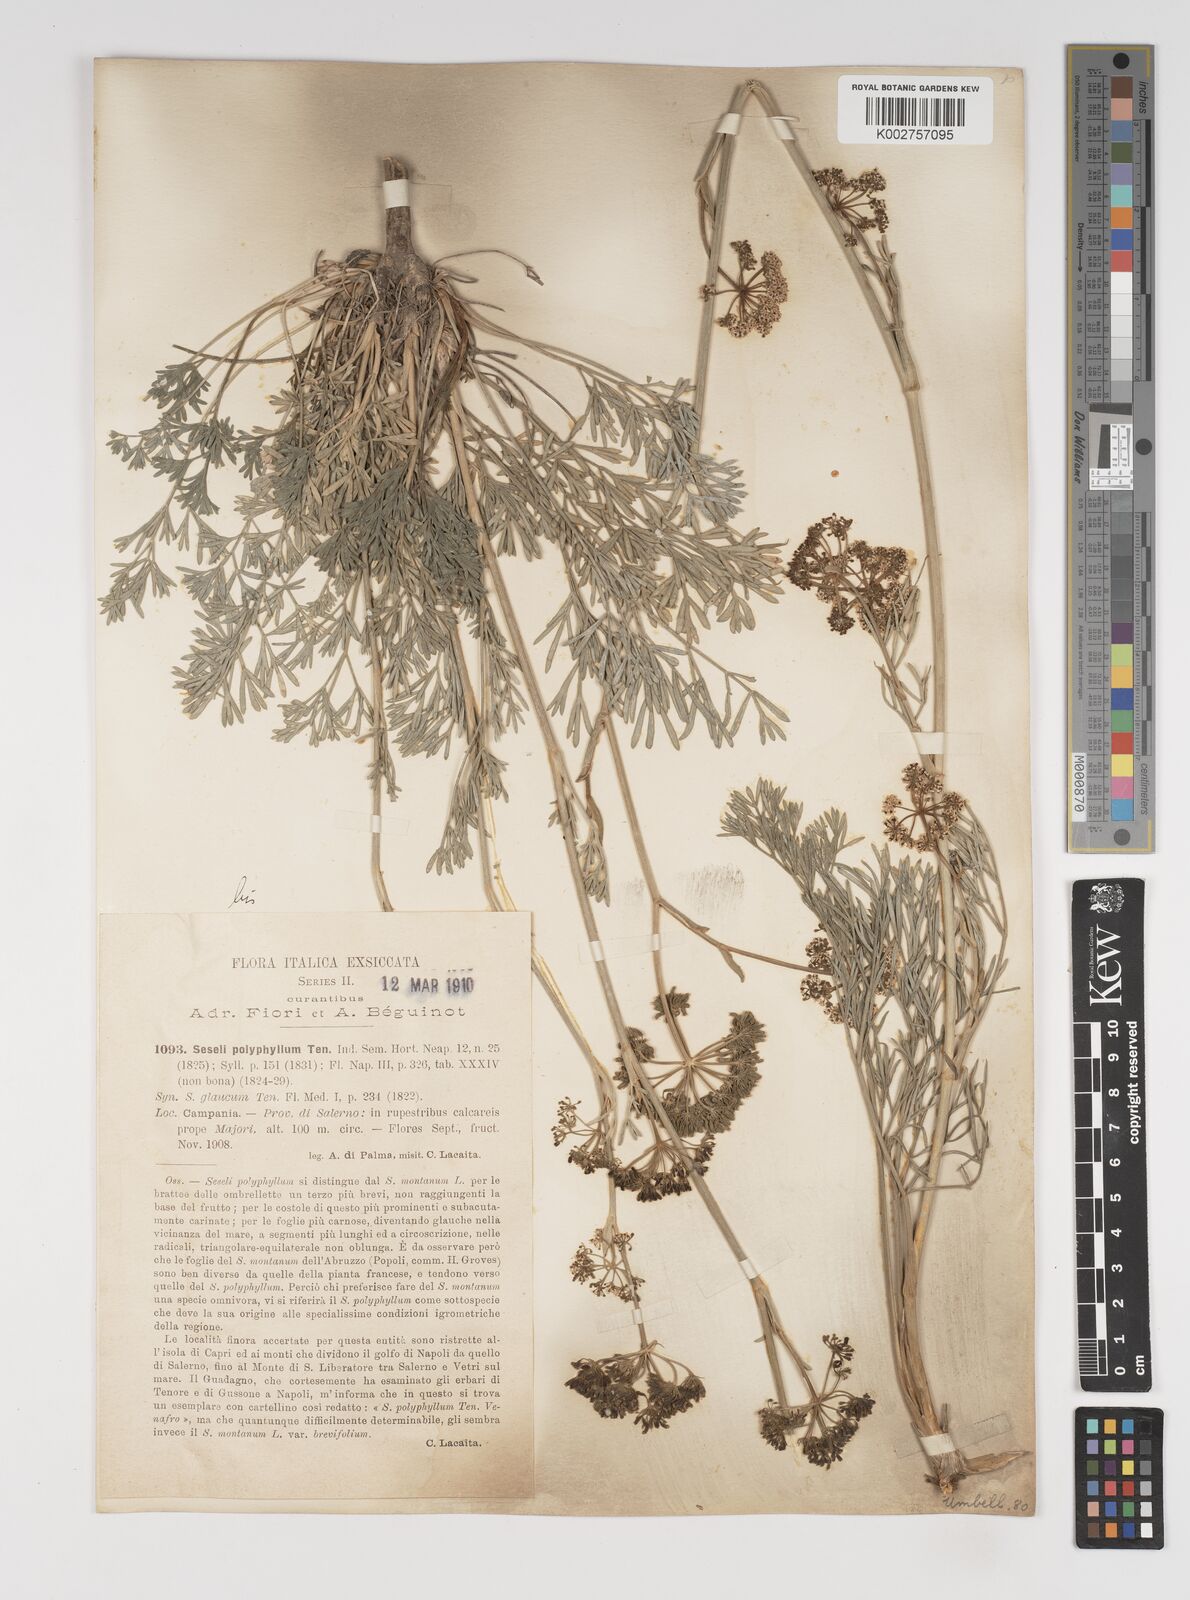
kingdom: Plantae
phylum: Tracheophyta
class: Magnoliopsida
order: Apiales
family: Apiaceae
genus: Seseli
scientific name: Seseli montanum
